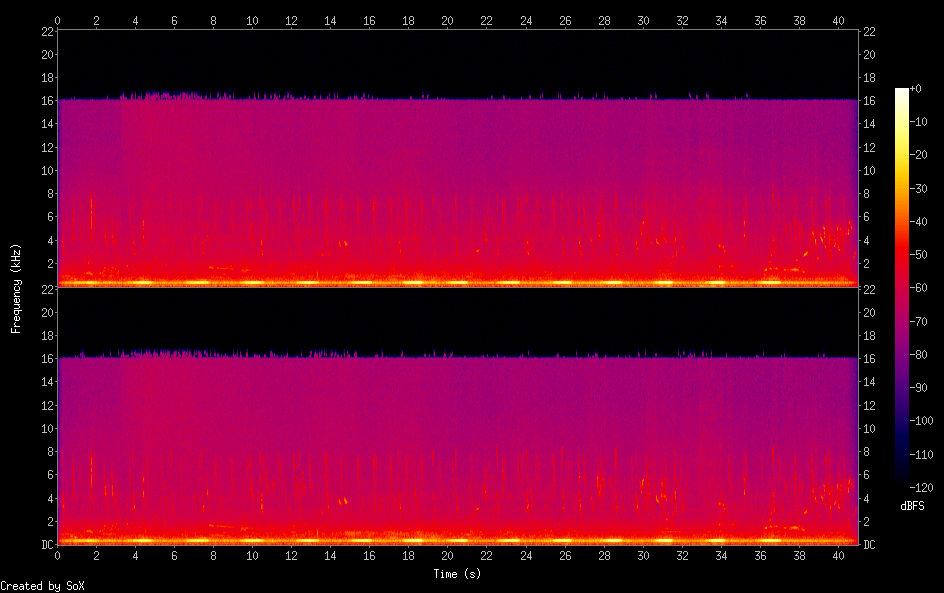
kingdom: Animalia
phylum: Chordata
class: Aves
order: Charadriiformes
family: Turnicidae
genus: Turnix
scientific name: Turnix sylvaticus
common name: Common buttonquail
